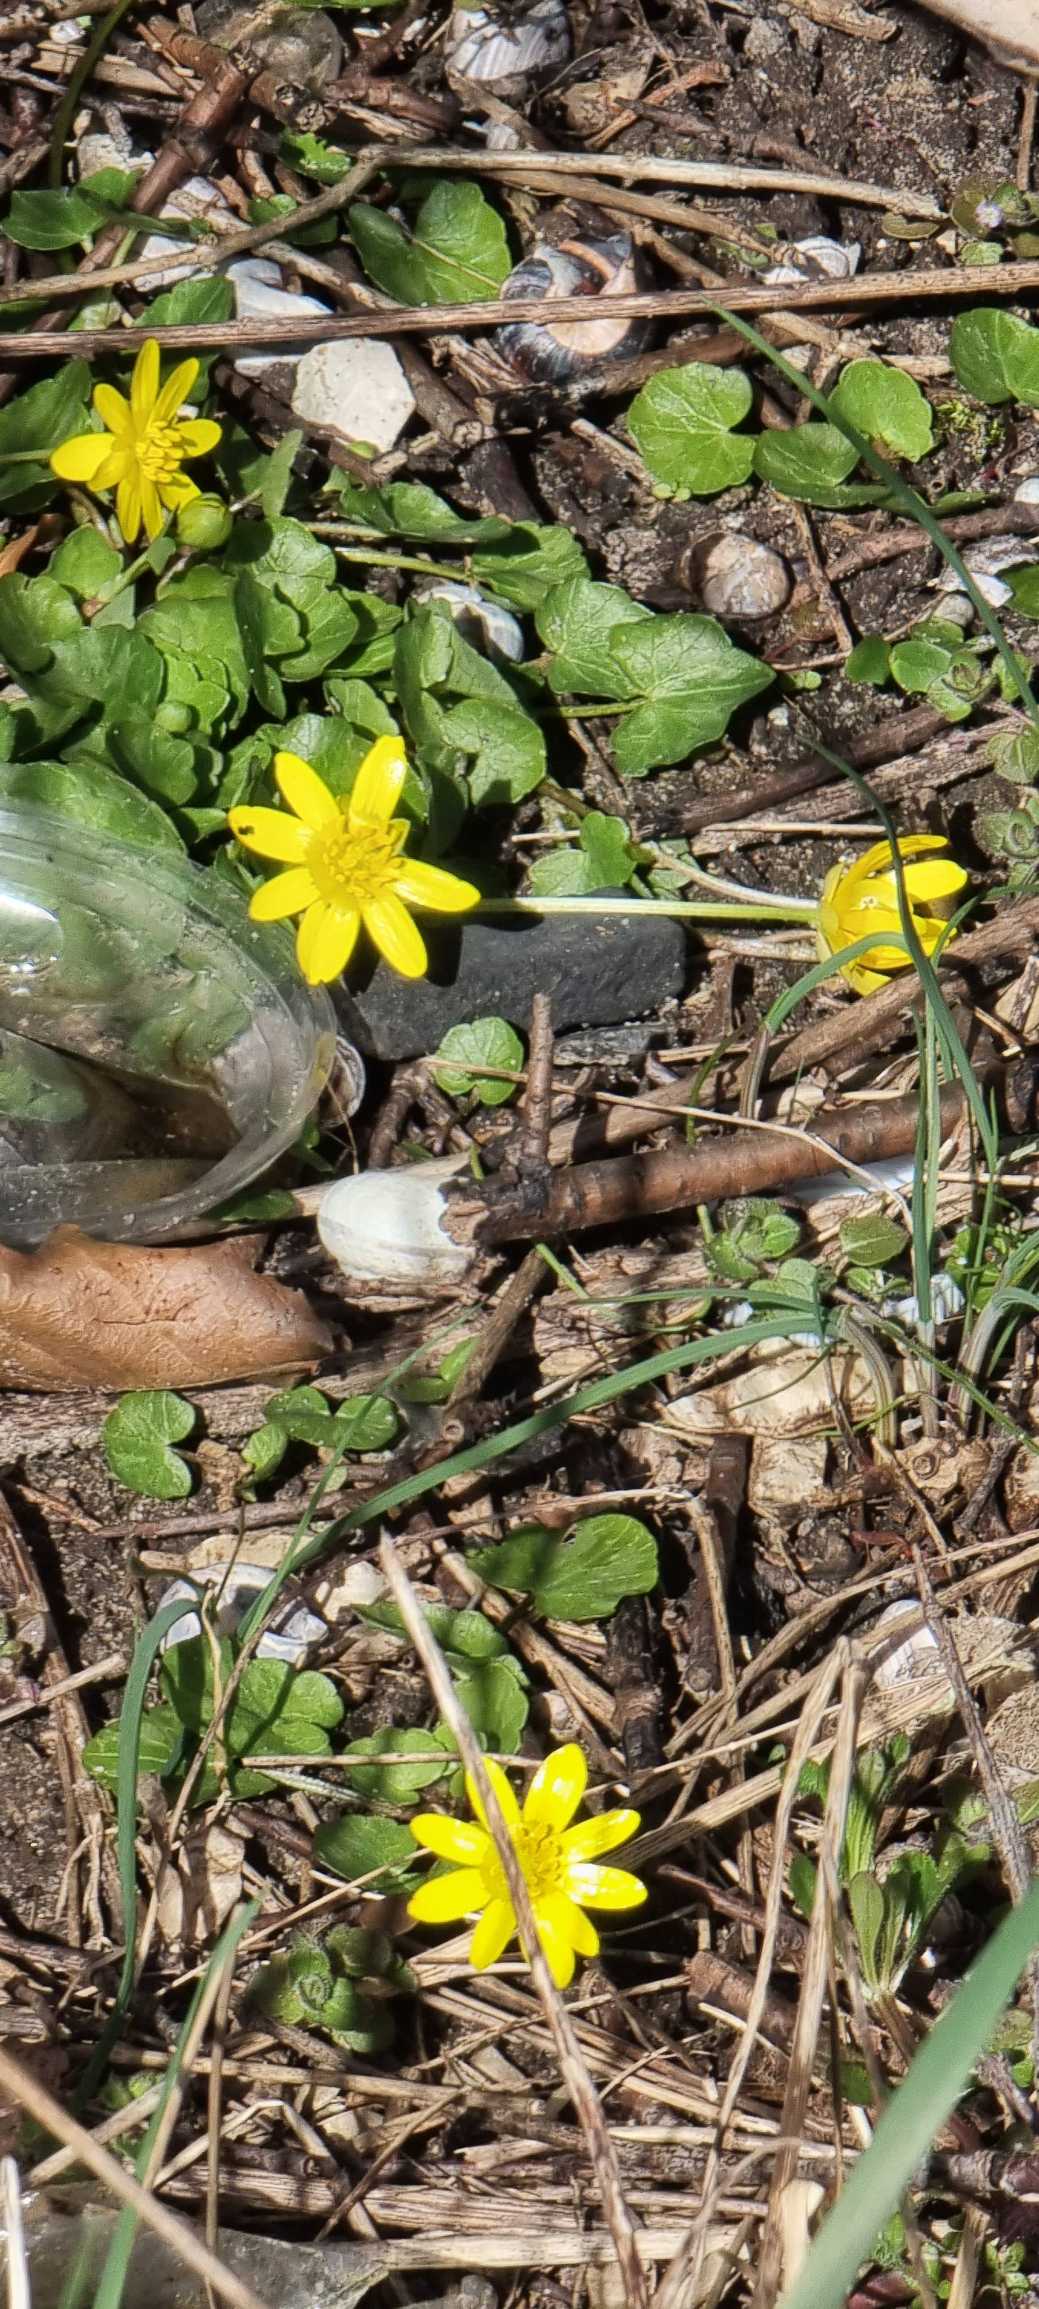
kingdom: Plantae
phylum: Tracheophyta
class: Magnoliopsida
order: Ranunculales
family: Ranunculaceae
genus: Ficaria
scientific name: Ficaria verna
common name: Vorterod
